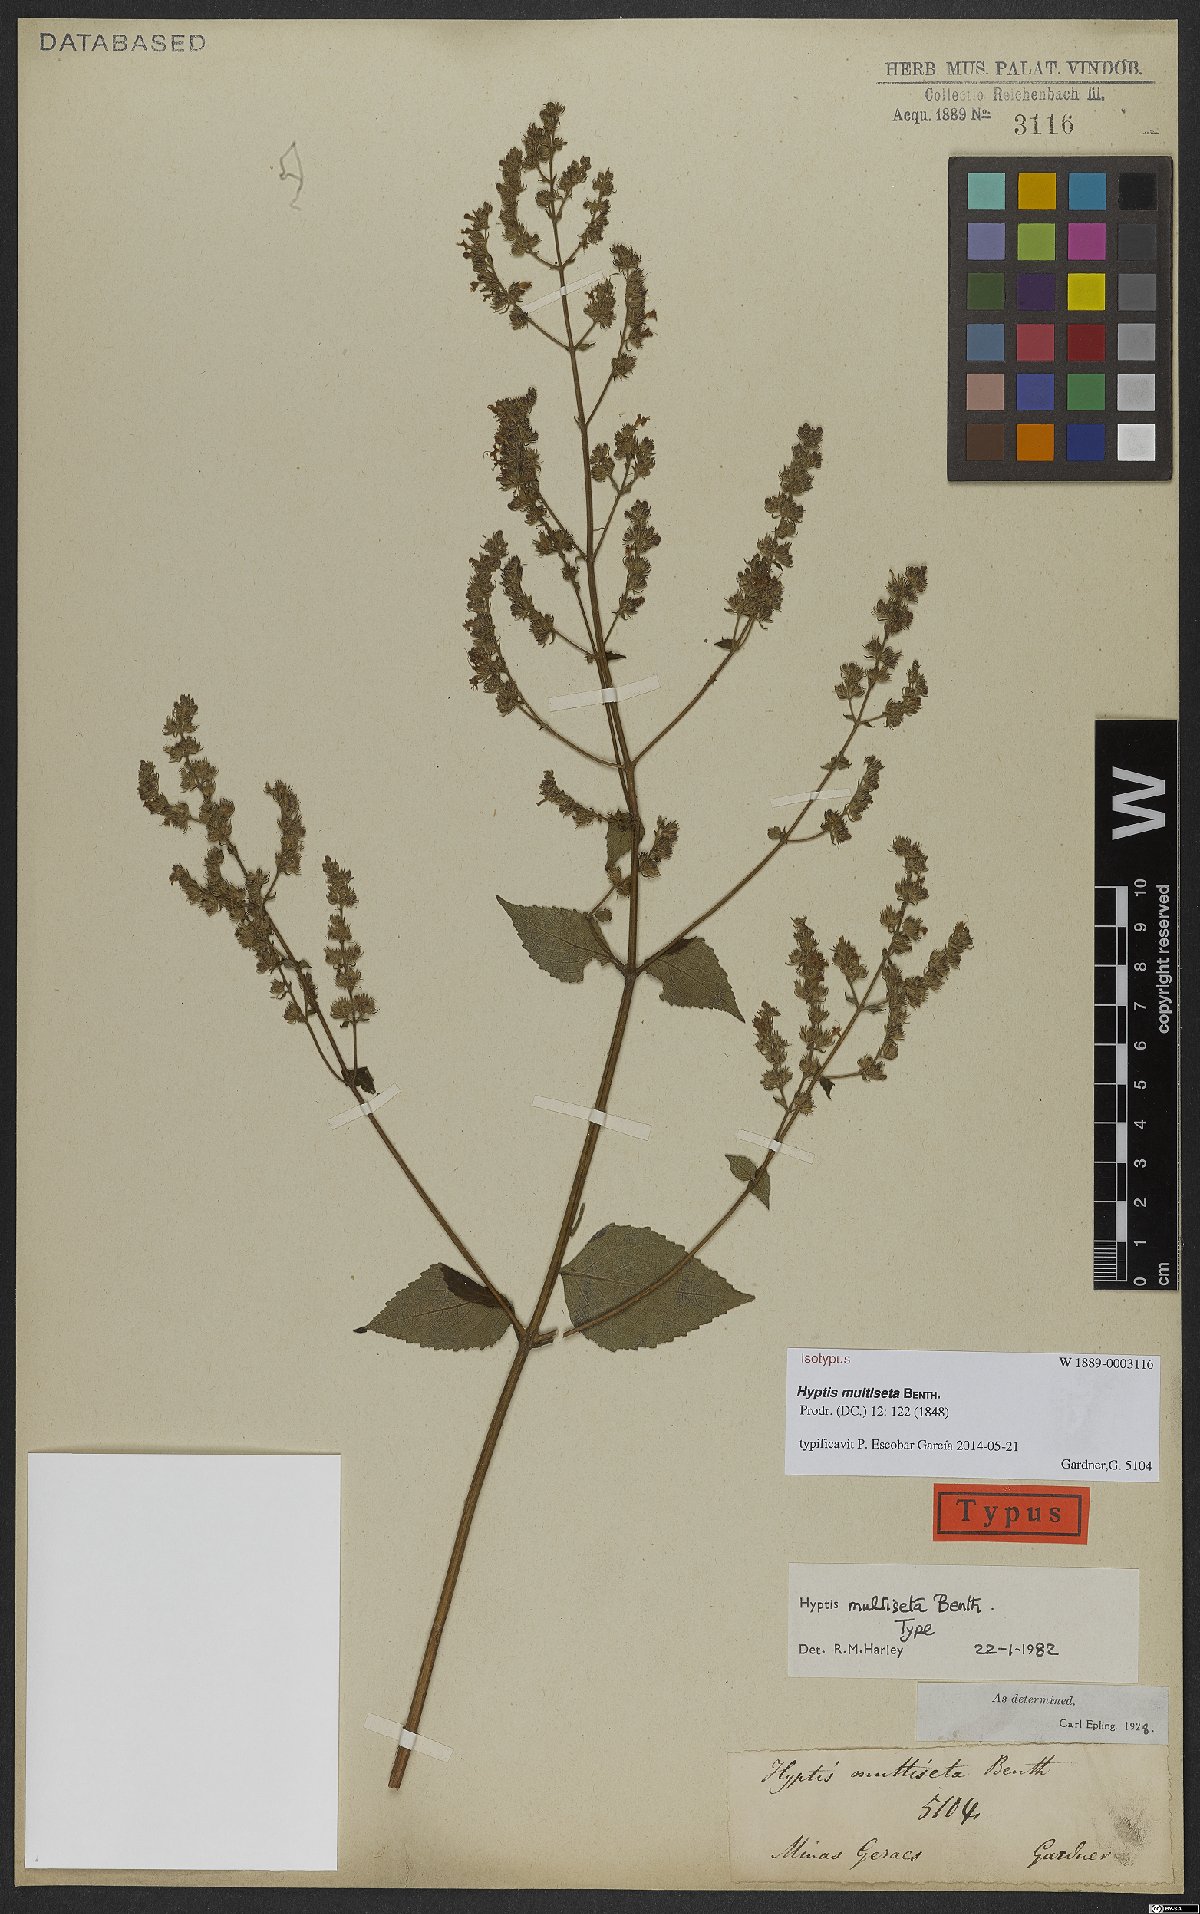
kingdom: Plantae
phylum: Tracheophyta
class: Magnoliopsida
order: Lamiales
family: Lamiaceae
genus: Cantinoa
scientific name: Cantinoa multiseta
